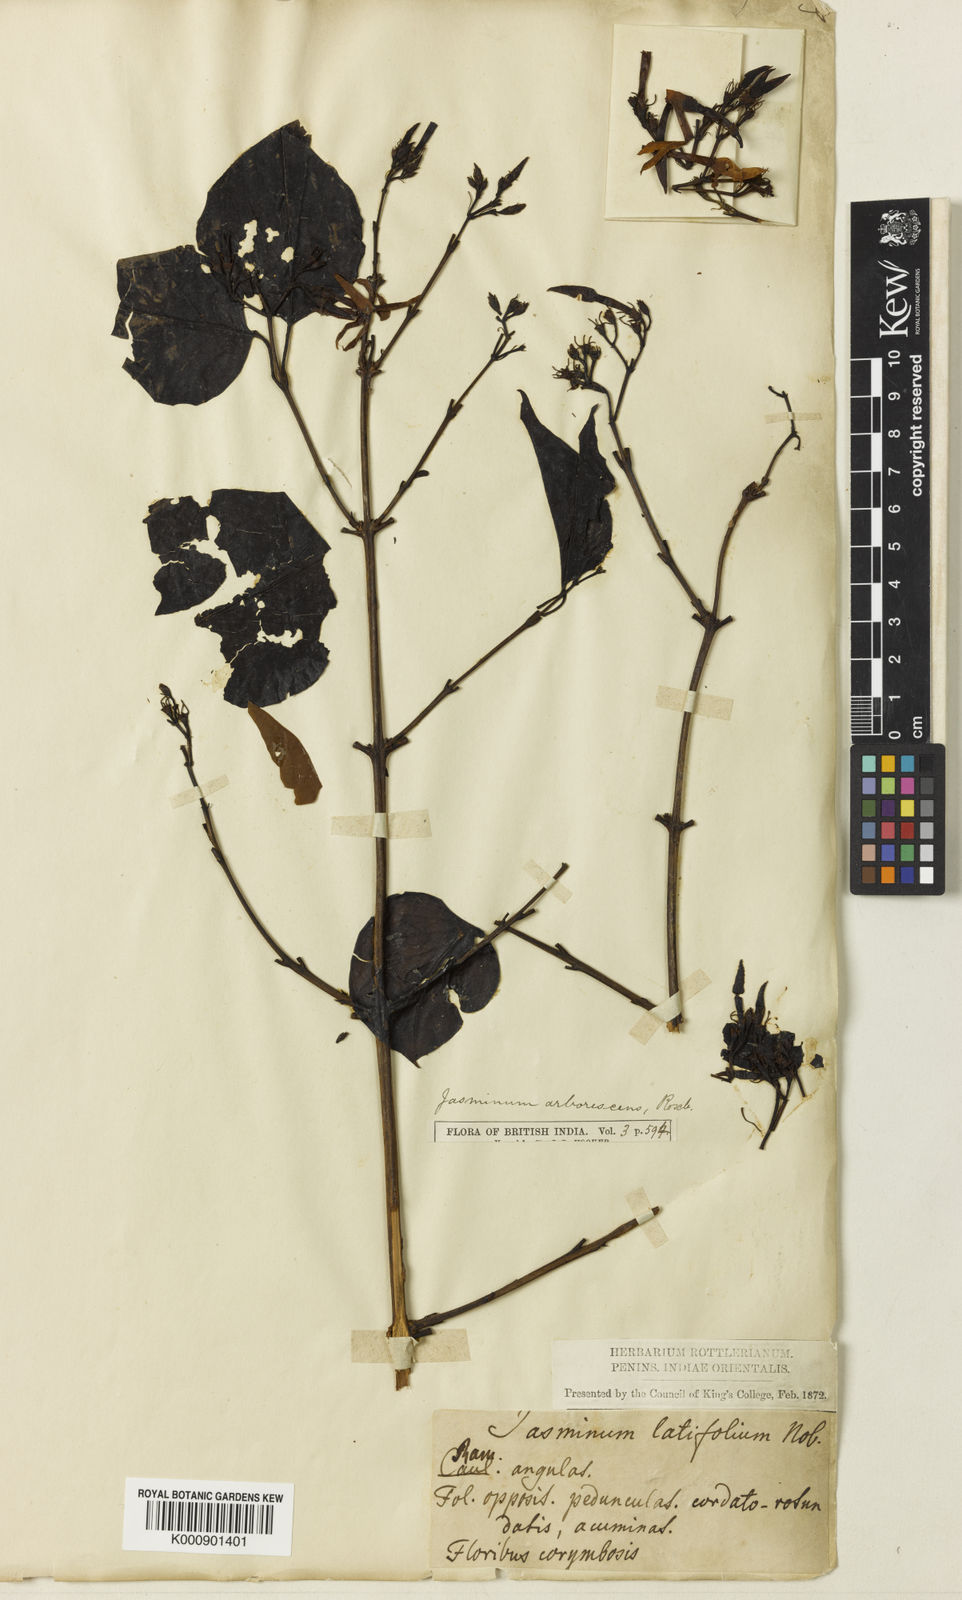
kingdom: Plantae
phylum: Tracheophyta
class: Magnoliopsida
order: Lamiales
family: Oleaceae
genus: Jasminum
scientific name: Jasminum arborescens
